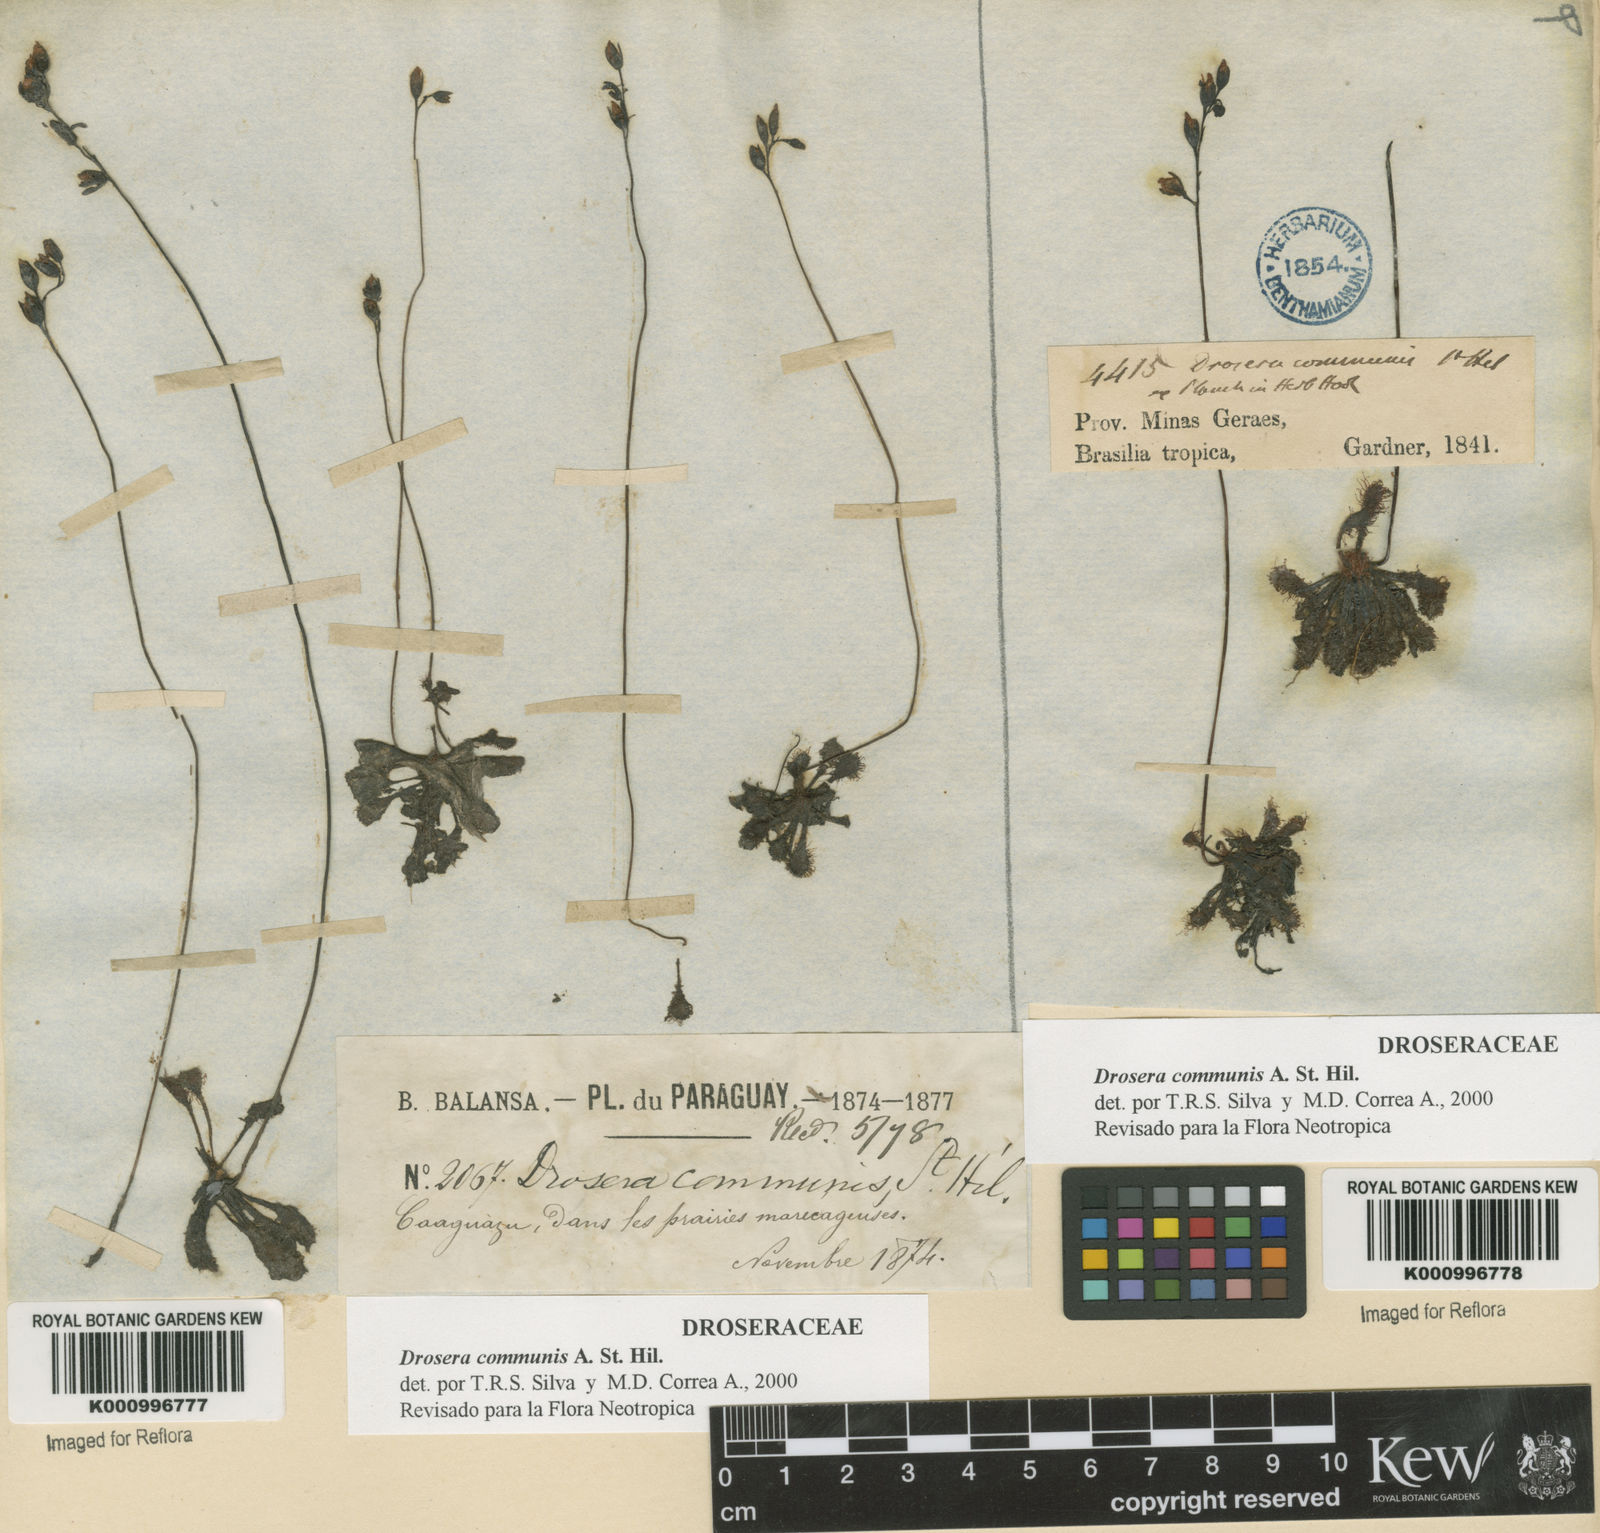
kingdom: Plantae
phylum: Tracheophyta
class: Magnoliopsida
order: Caryophyllales
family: Droseraceae
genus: Drosera
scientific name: Drosera communis
